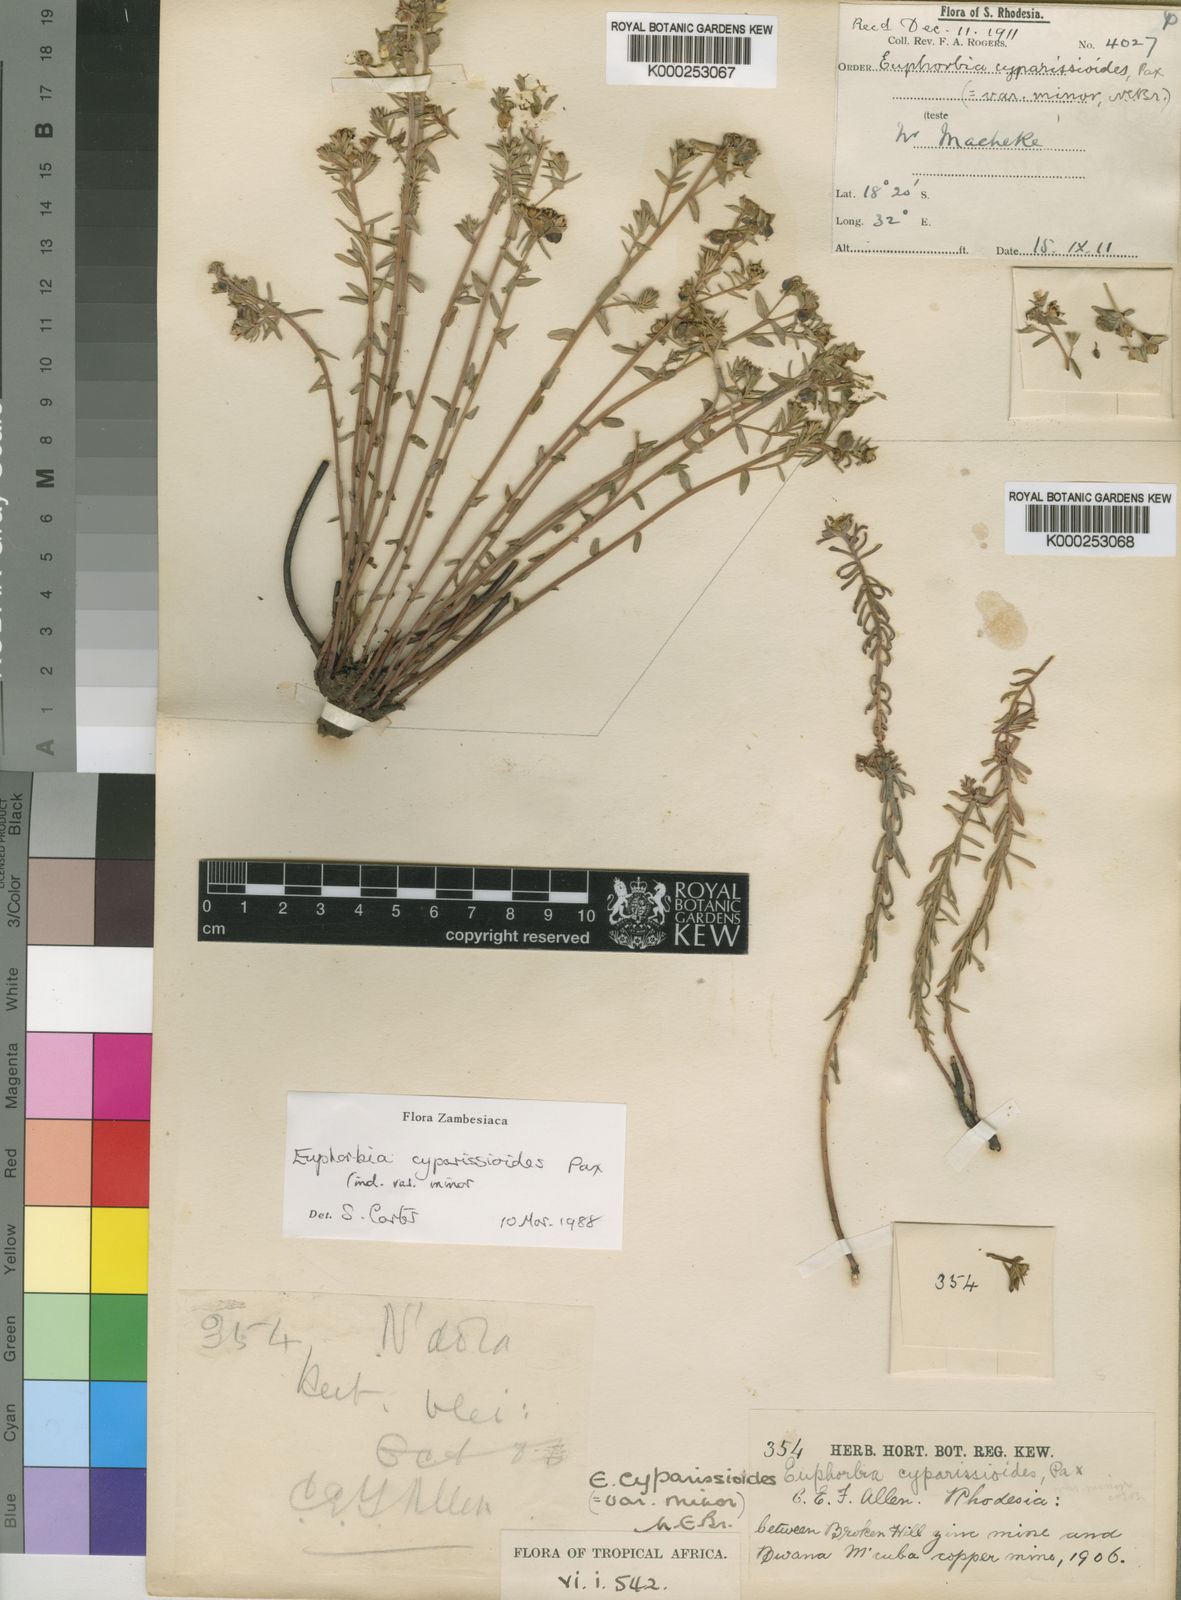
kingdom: Plantae
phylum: Tracheophyta
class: Magnoliopsida
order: Malpighiales
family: Euphorbiaceae
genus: Euphorbia
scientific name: Euphorbia cyparissioides
